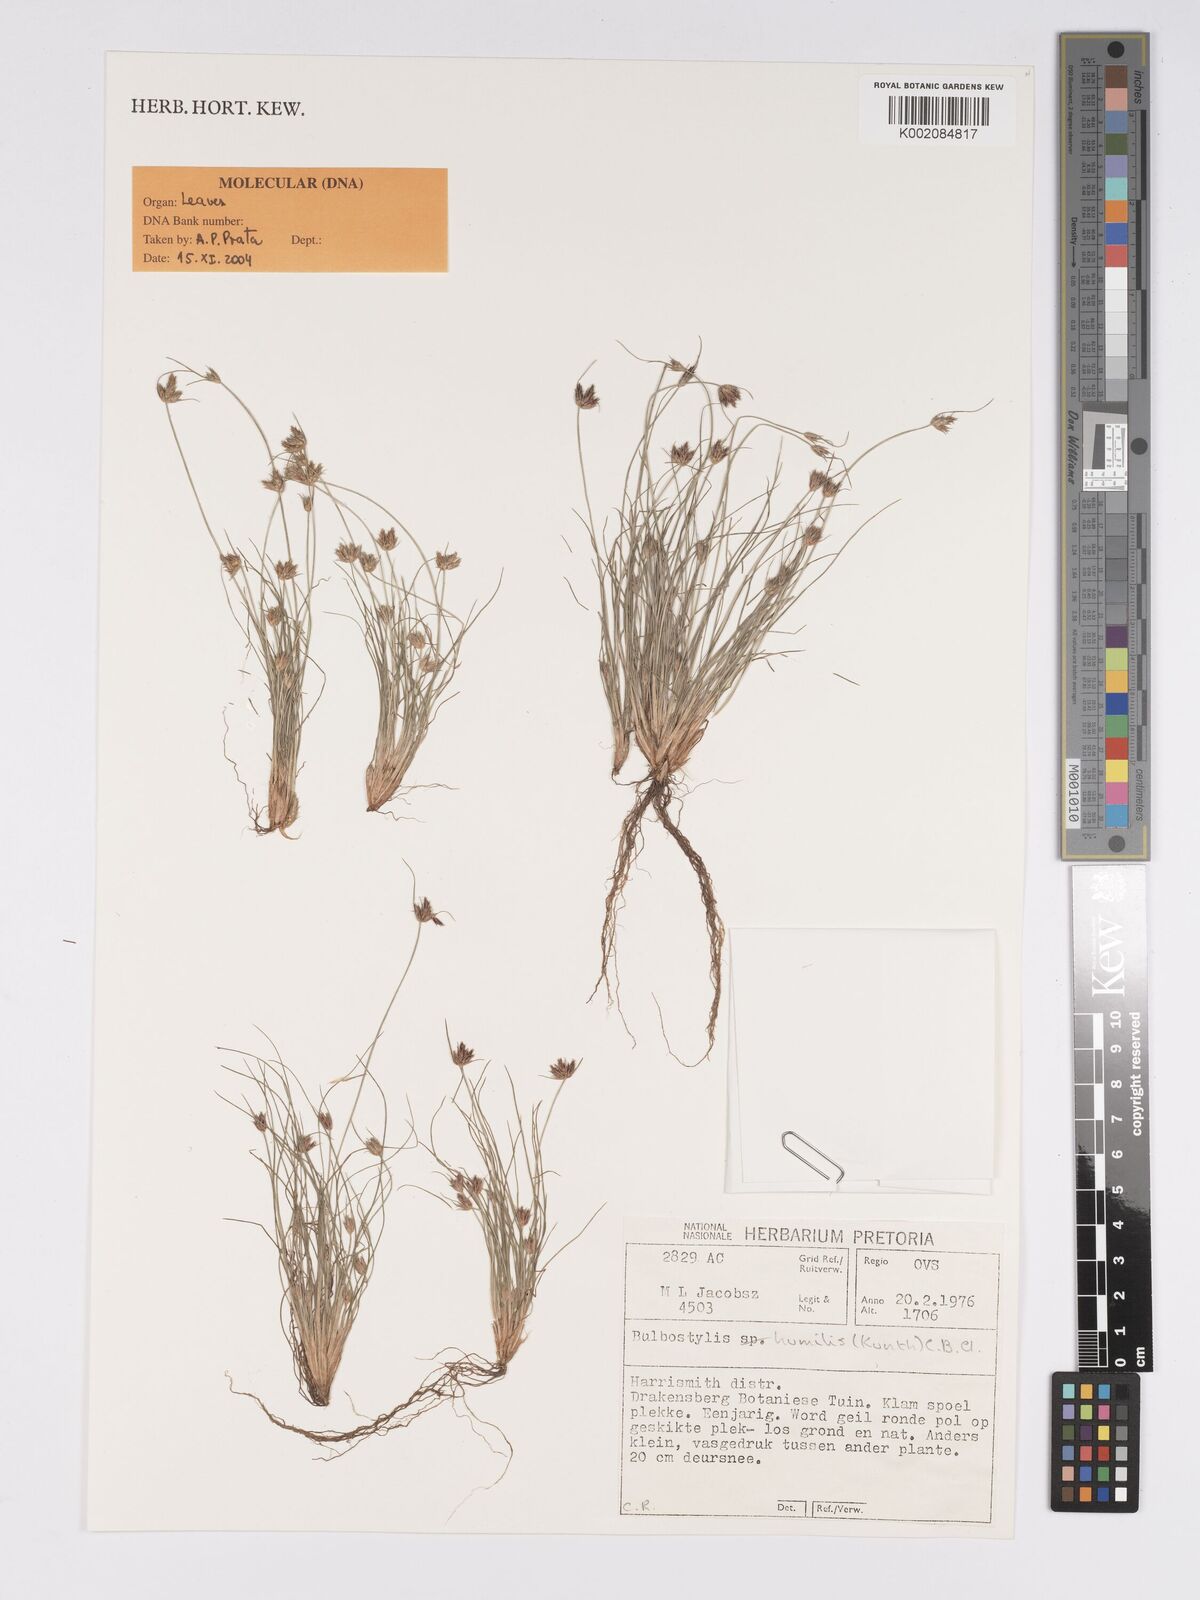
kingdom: Plantae
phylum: Tracheophyta
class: Liliopsida
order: Poales
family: Cyperaceae
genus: Bulbostylis
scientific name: Bulbostylis humilis
